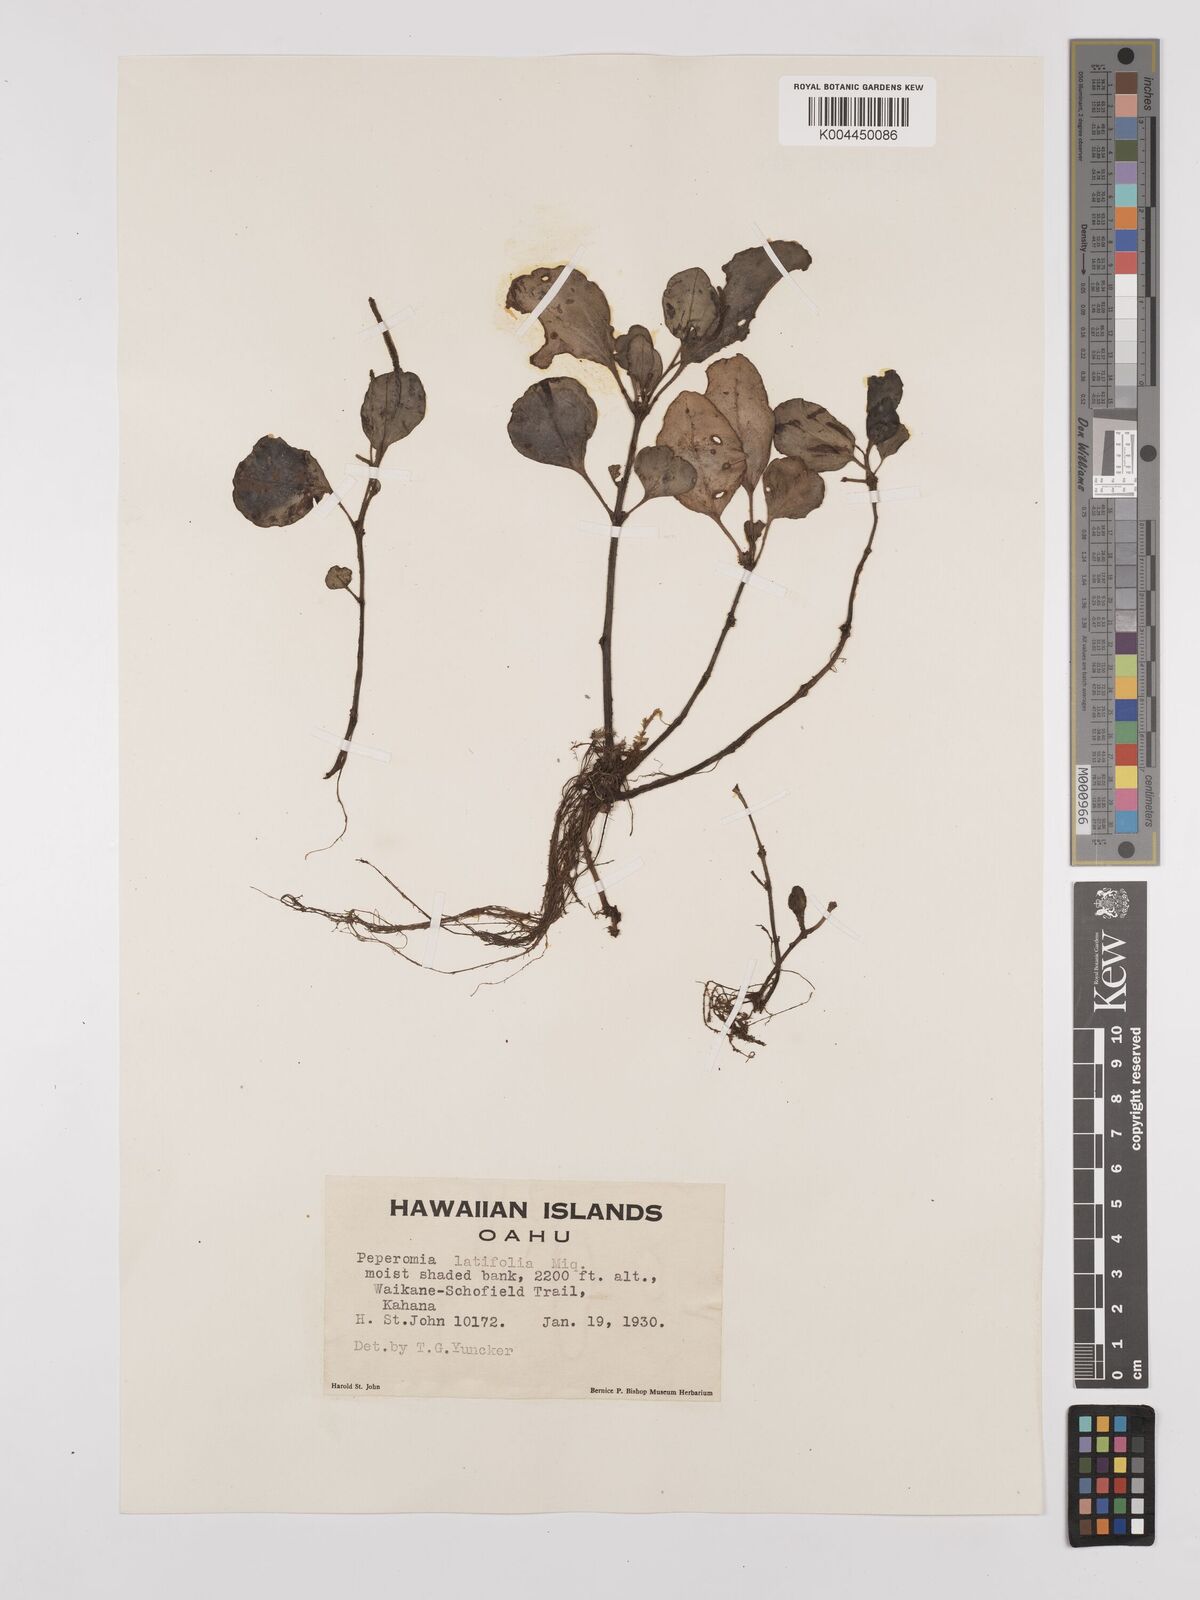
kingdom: Plantae
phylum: Tracheophyta
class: Magnoliopsida
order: Piperales
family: Piperaceae
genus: Peperomia
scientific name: Peperomia latifolia
